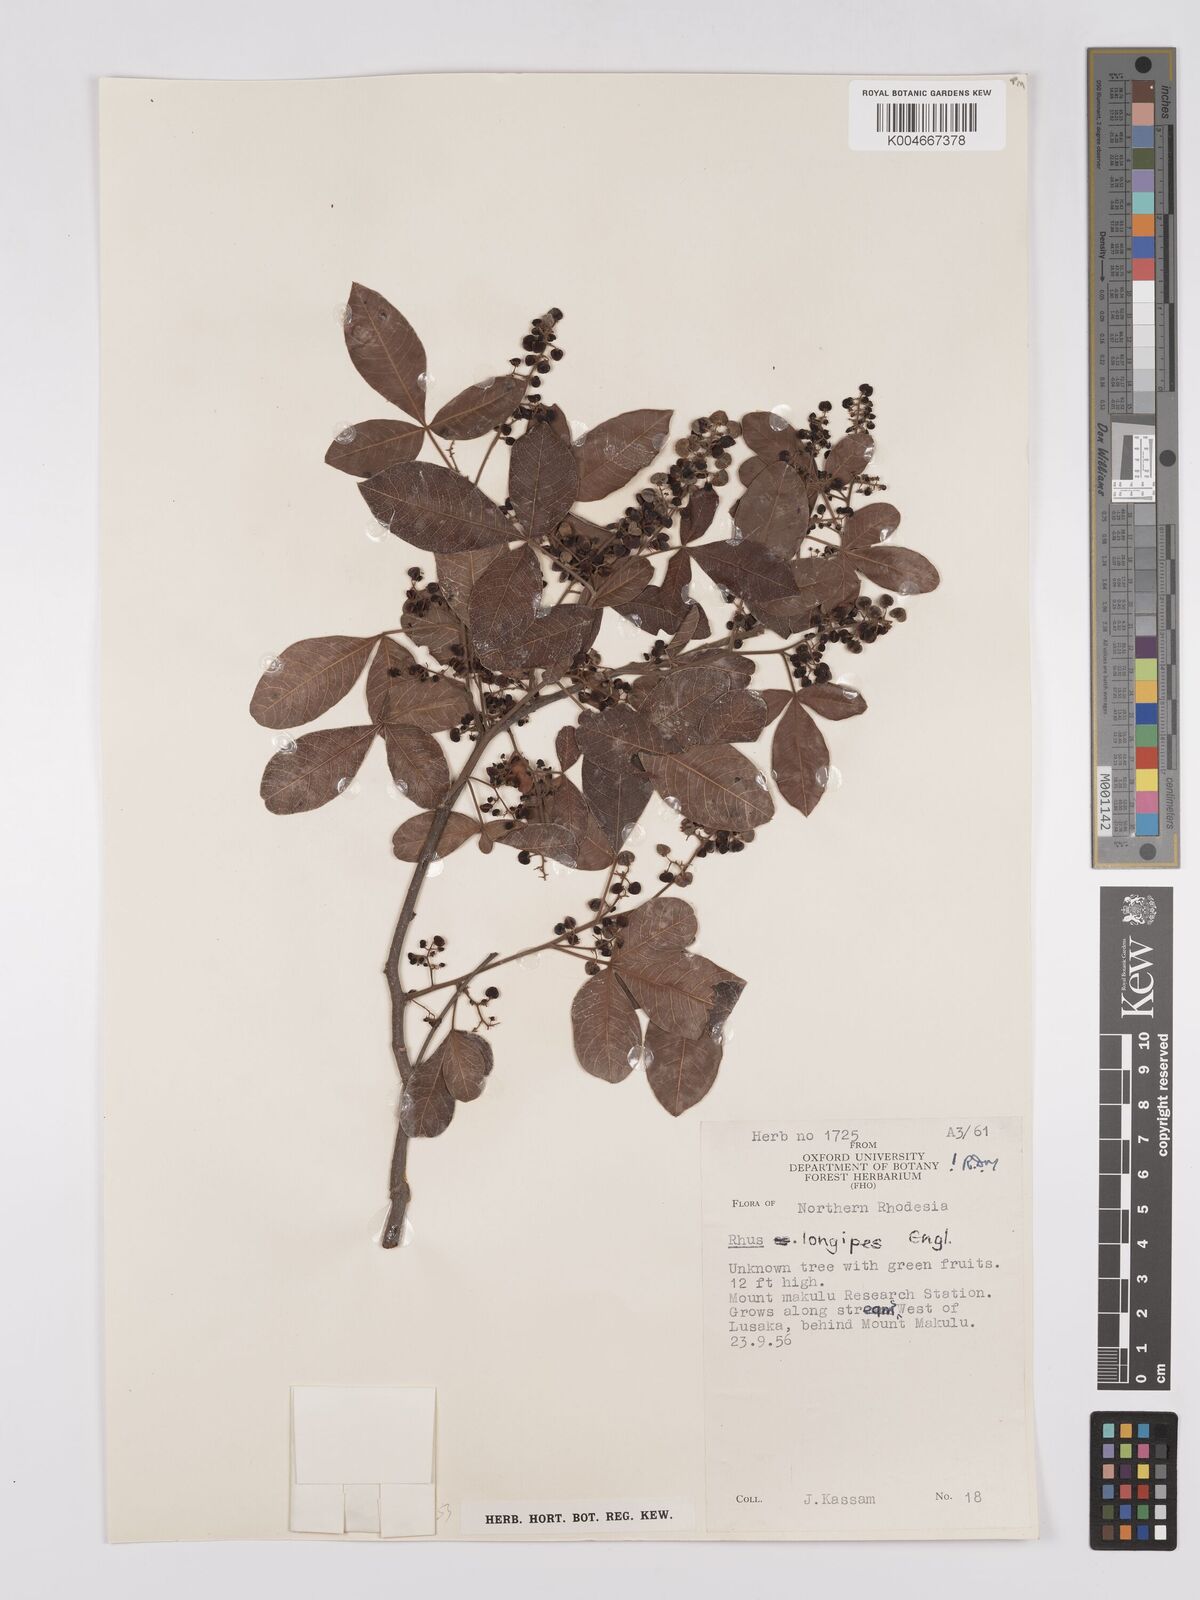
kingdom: Plantae
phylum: Tracheophyta
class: Magnoliopsida
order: Sapindales
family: Anacardiaceae
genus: Searsia
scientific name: Searsia longipes
